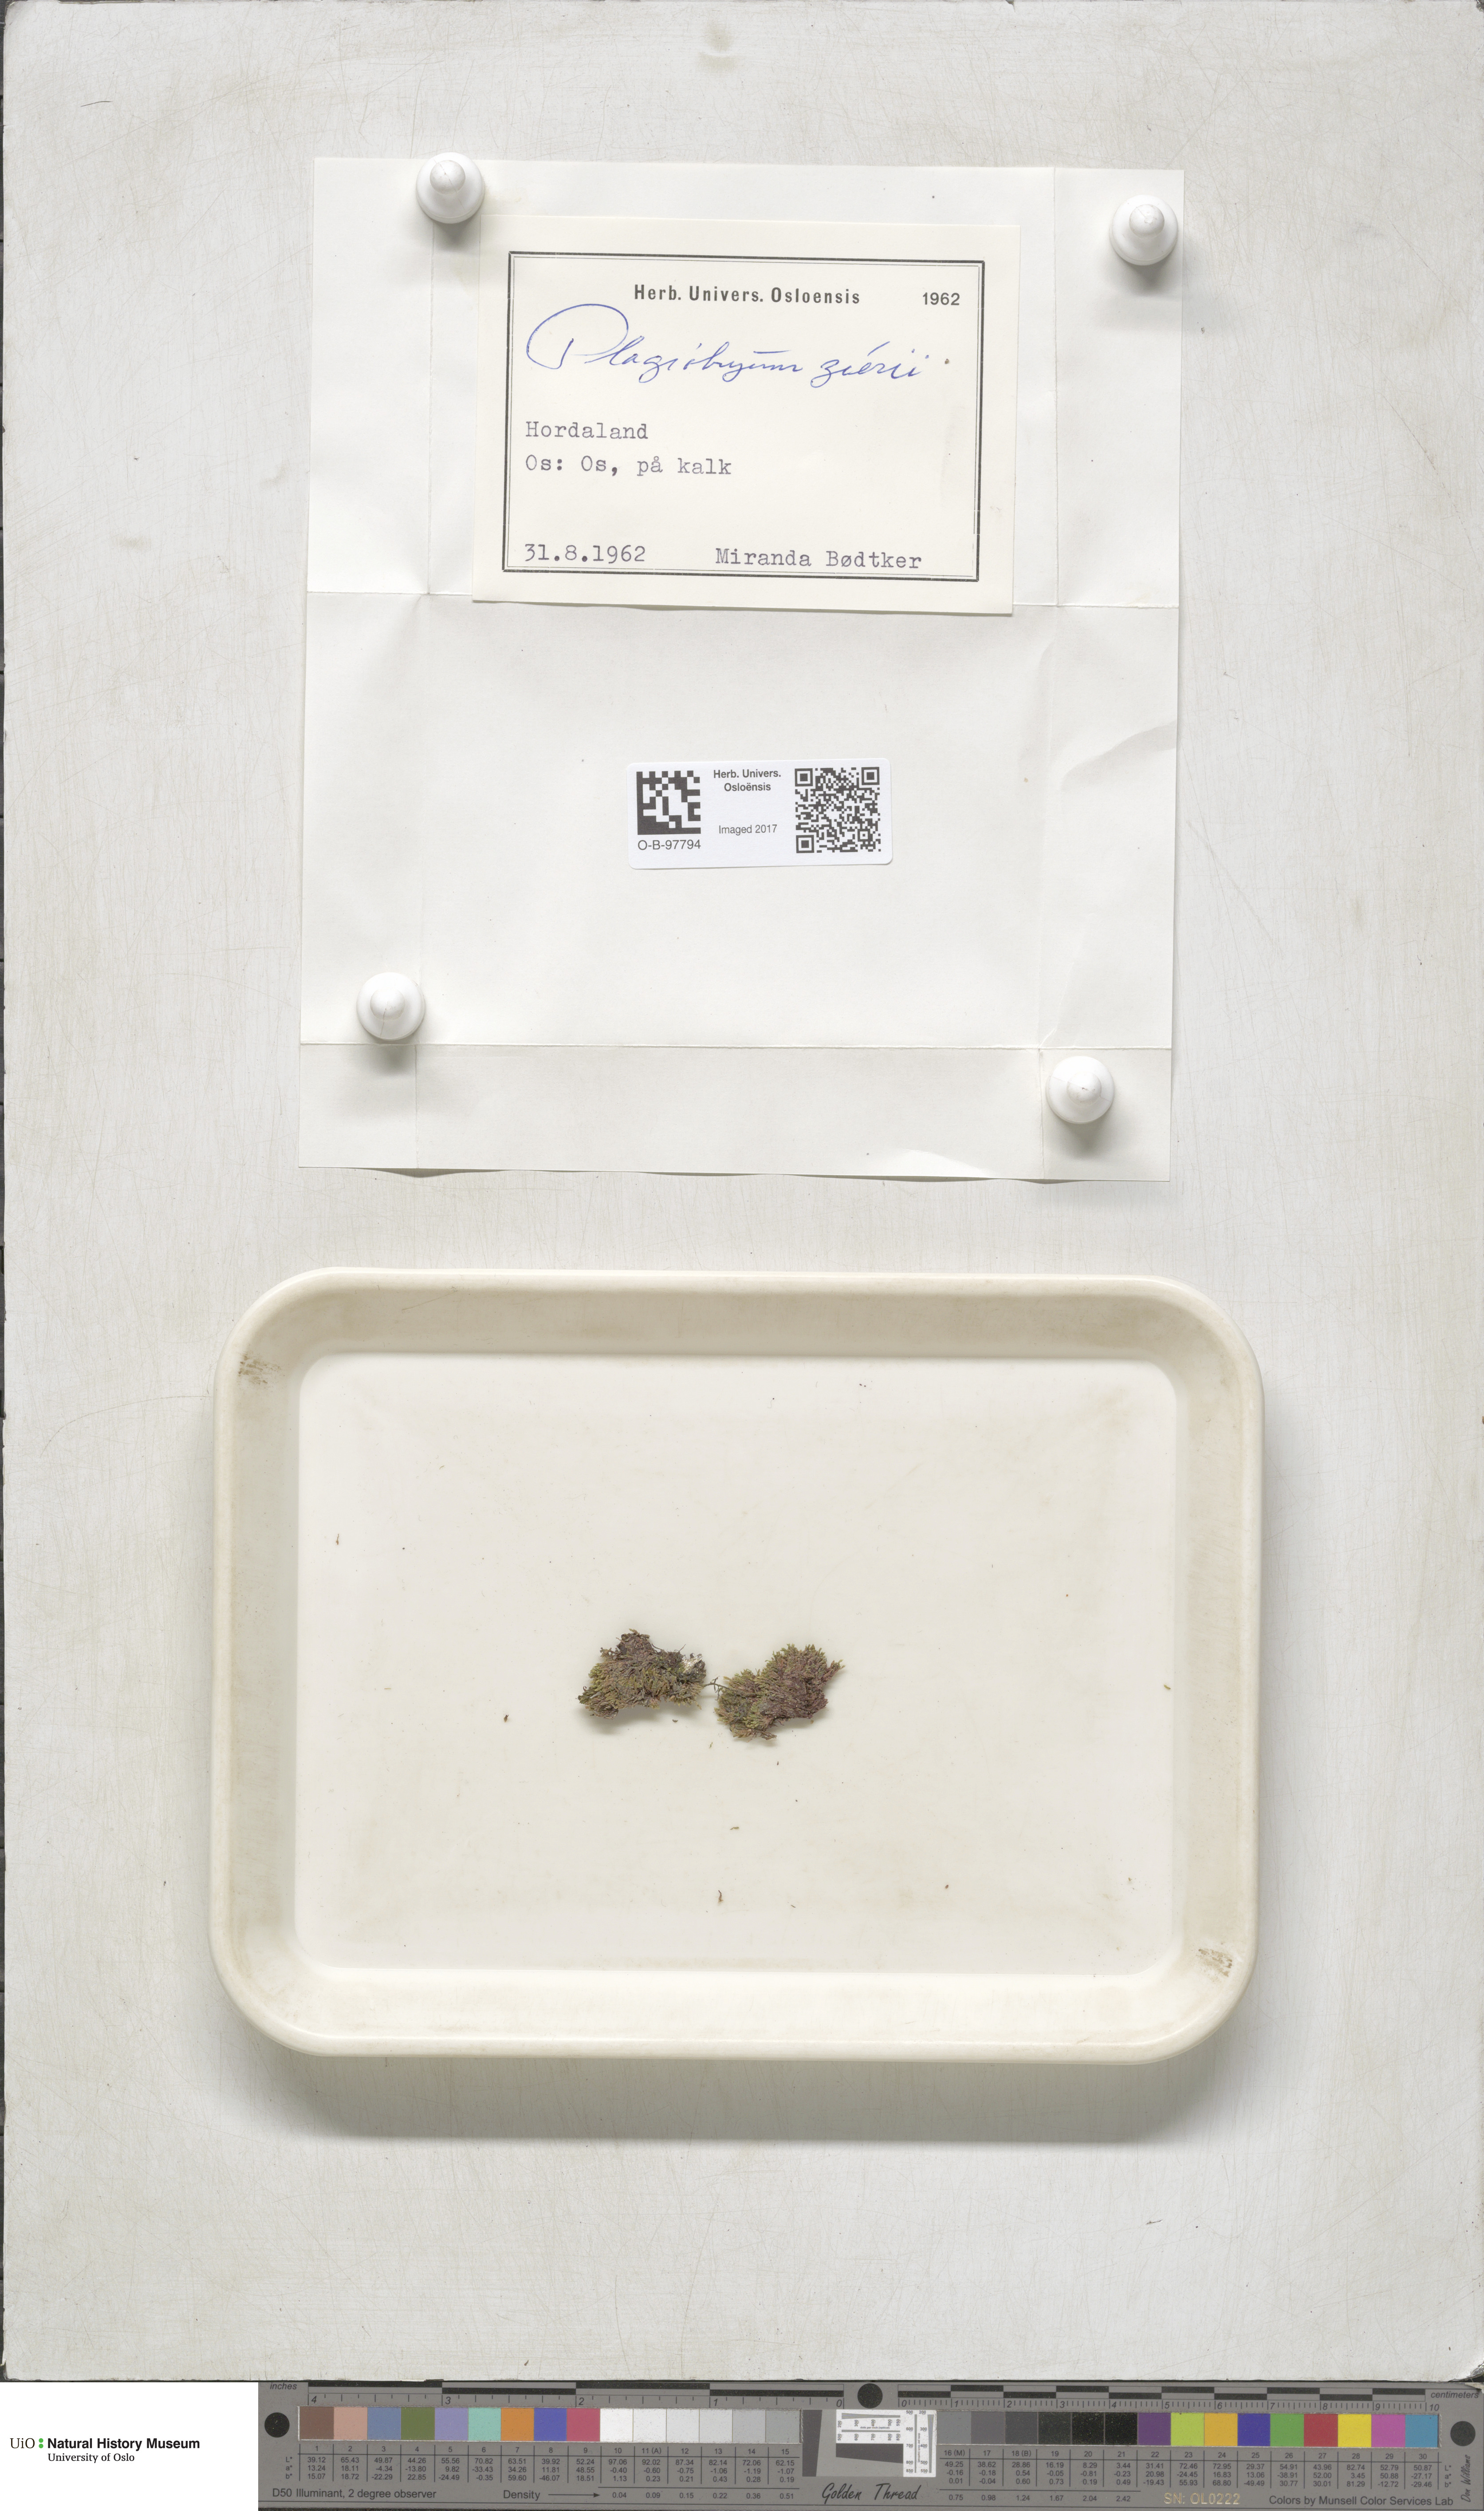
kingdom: Plantae
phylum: Bryophyta
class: Bryopsida
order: Bryales
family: Bryaceae
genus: Plagiobryum
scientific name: Plagiobryum zieri
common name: Zier's hump moss
